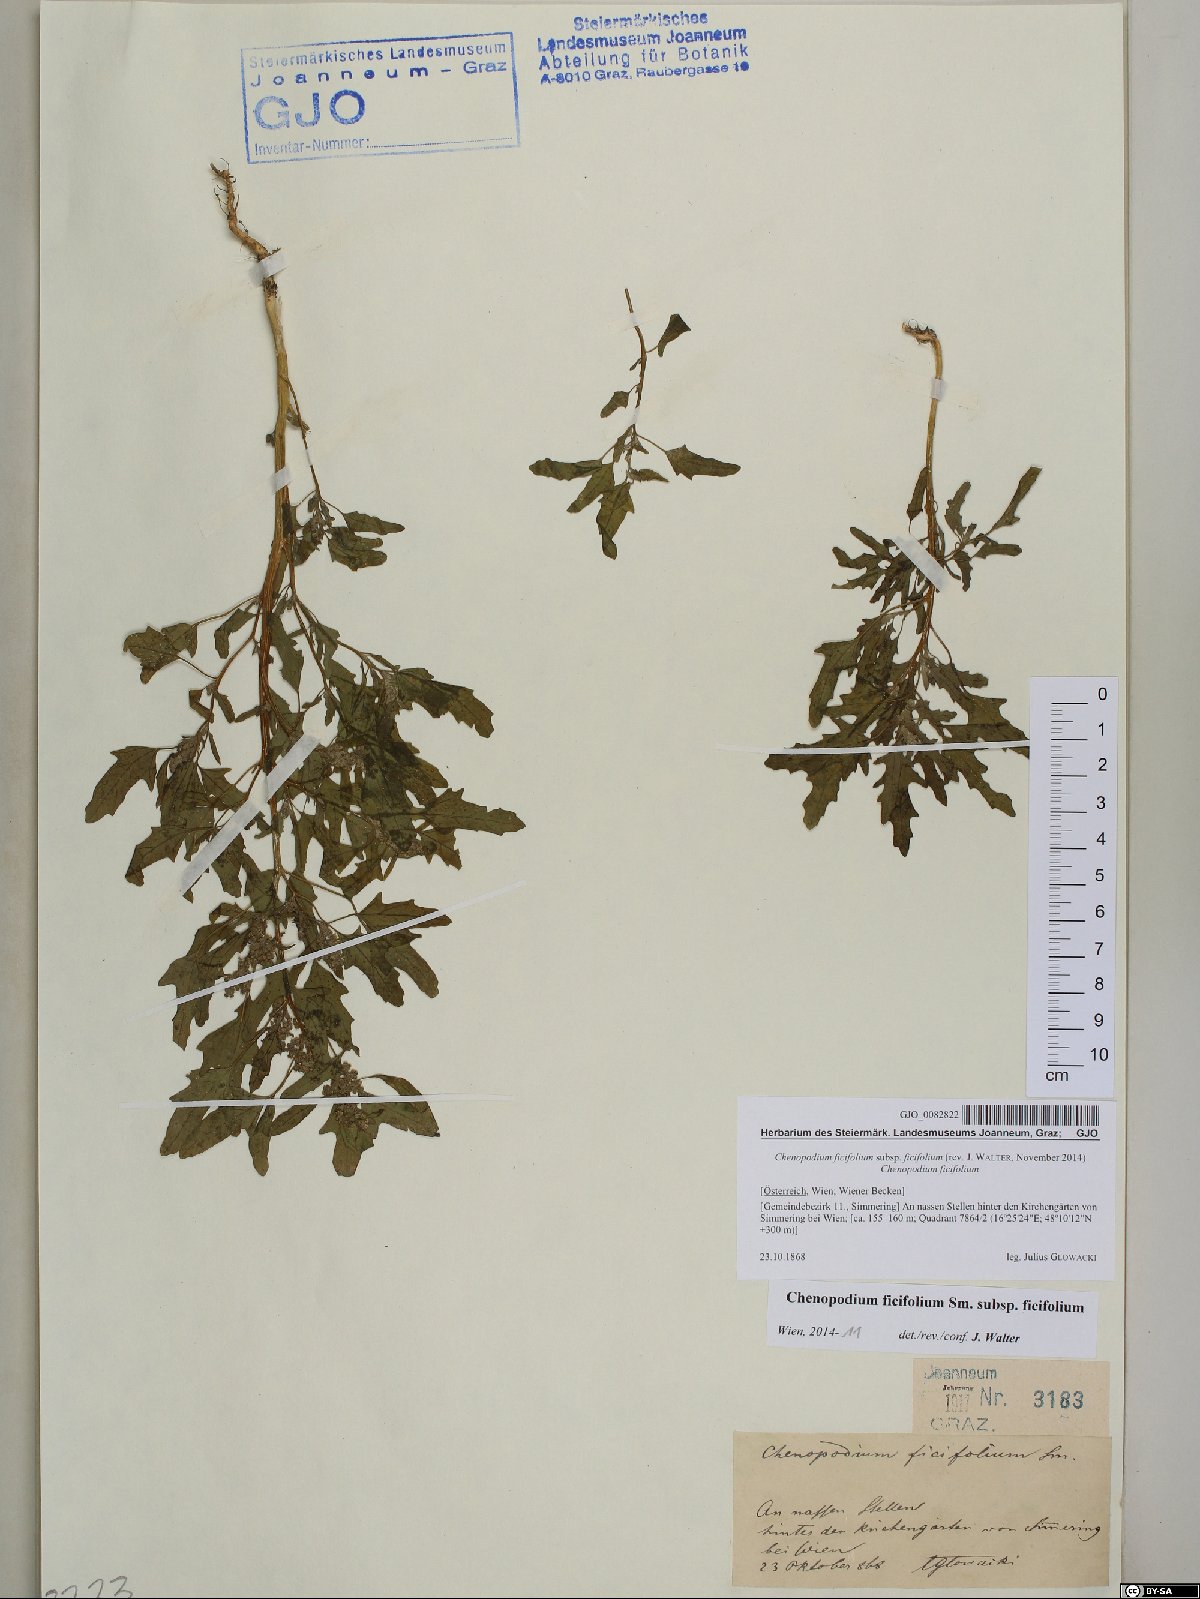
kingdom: Plantae
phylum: Tracheophyta
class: Magnoliopsida
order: Caryophyllales
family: Amaranthaceae
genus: Chenopodium
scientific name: Chenopodium ficifolium
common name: Fig-leaved goosefoot
